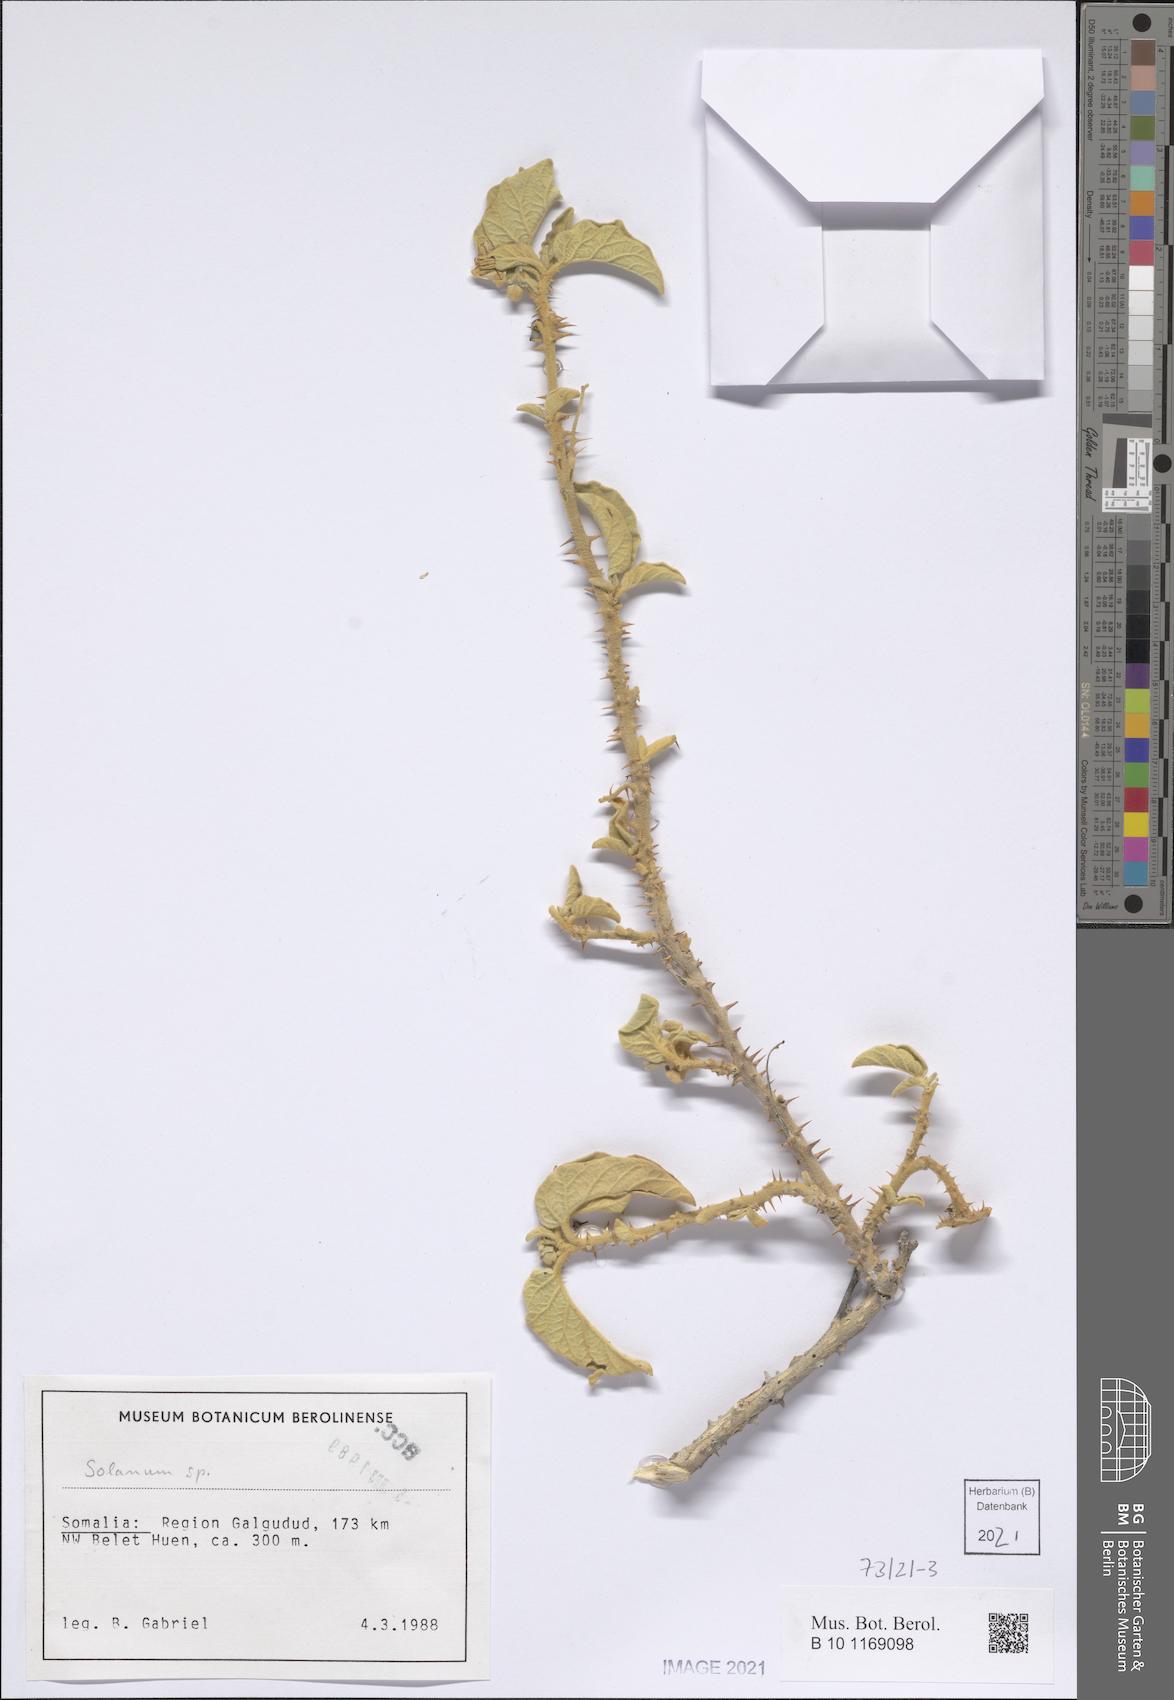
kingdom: Plantae
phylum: Tracheophyta
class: Magnoliopsida
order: Solanales
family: Solanaceae
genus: Solanum
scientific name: Solanum
